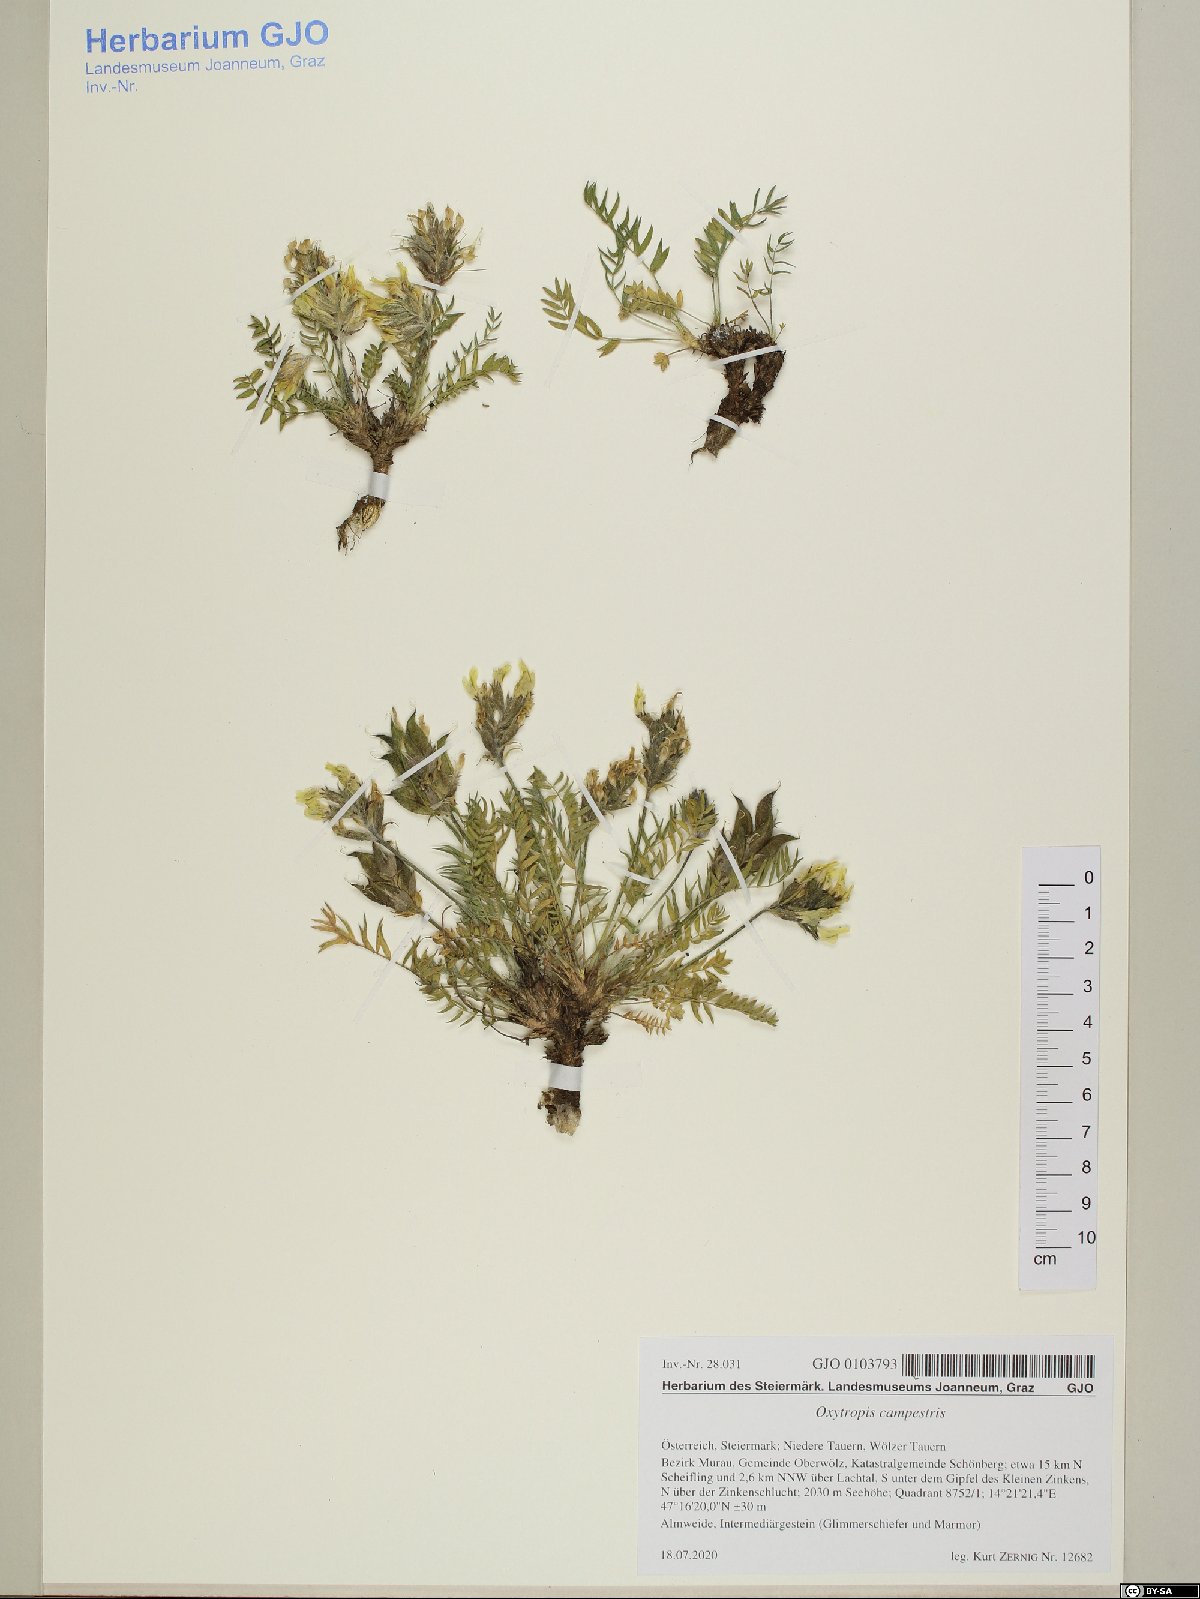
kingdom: Plantae
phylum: Tracheophyta
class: Magnoliopsida
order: Fabales
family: Fabaceae
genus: Oxytropis
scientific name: Oxytropis campestris
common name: Field locoweed
